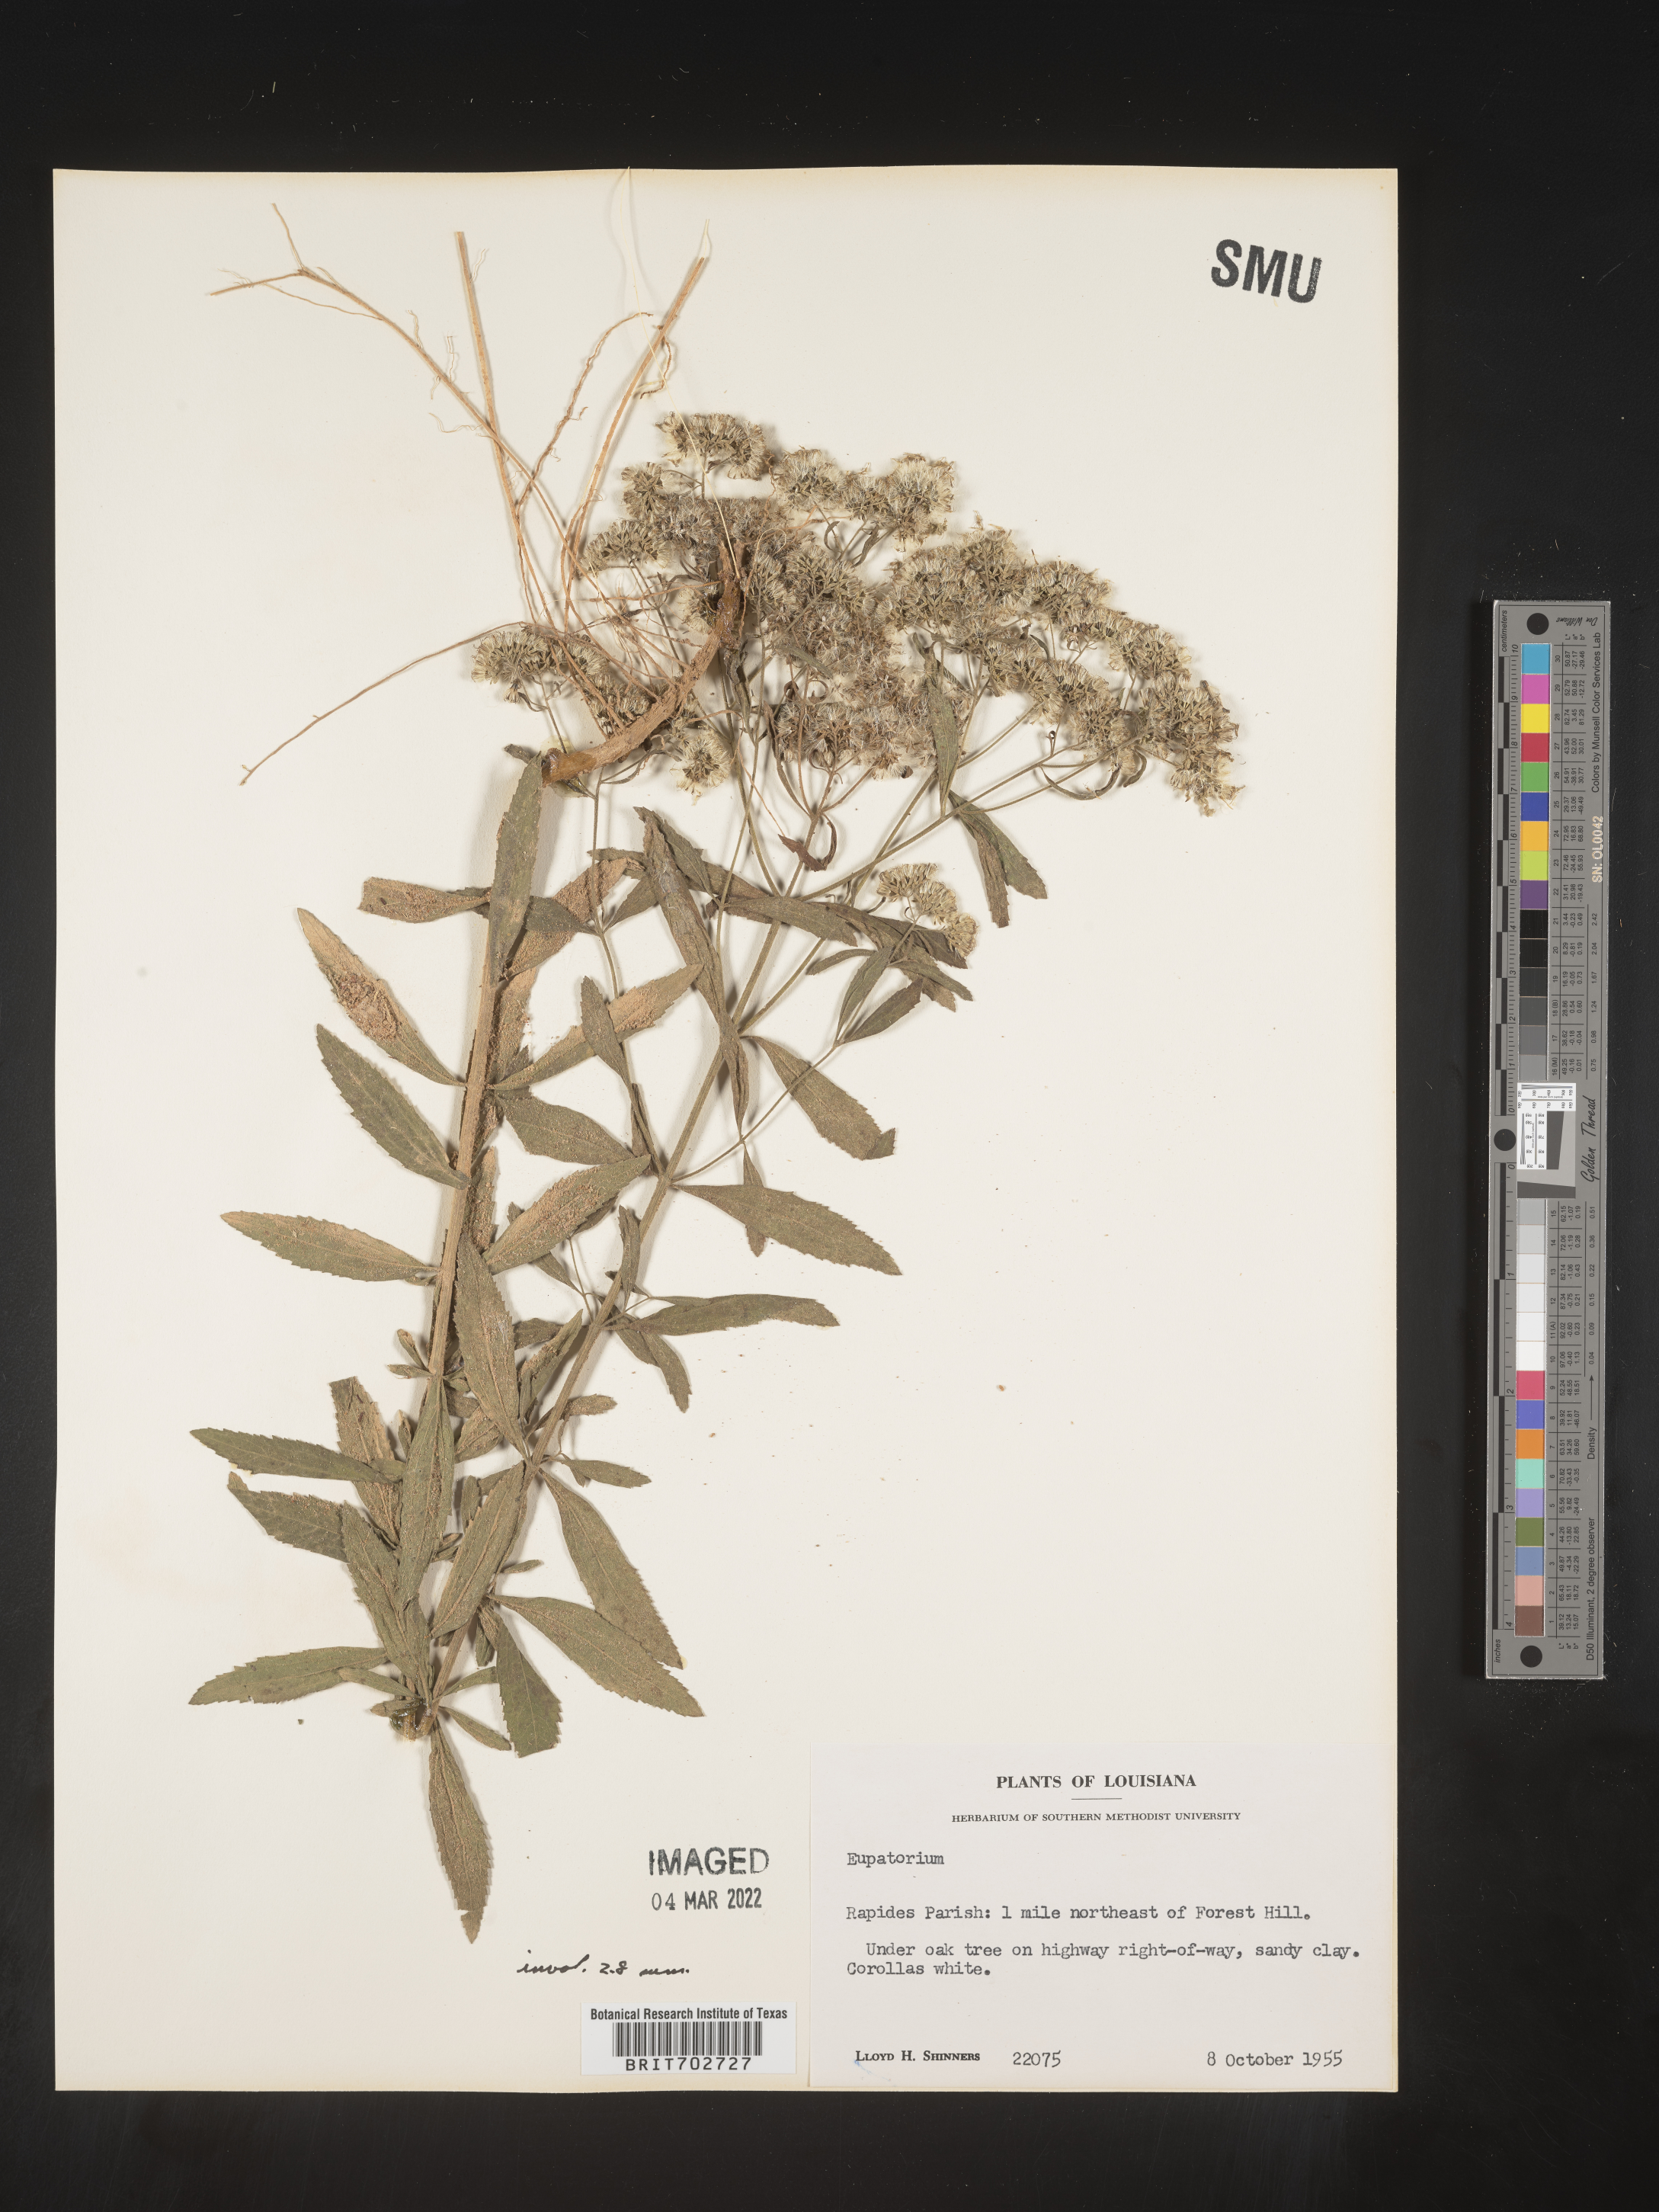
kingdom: Plantae
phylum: Tracheophyta
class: Magnoliopsida
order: Asterales
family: Asteraceae
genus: Eupatorium
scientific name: Eupatorium
